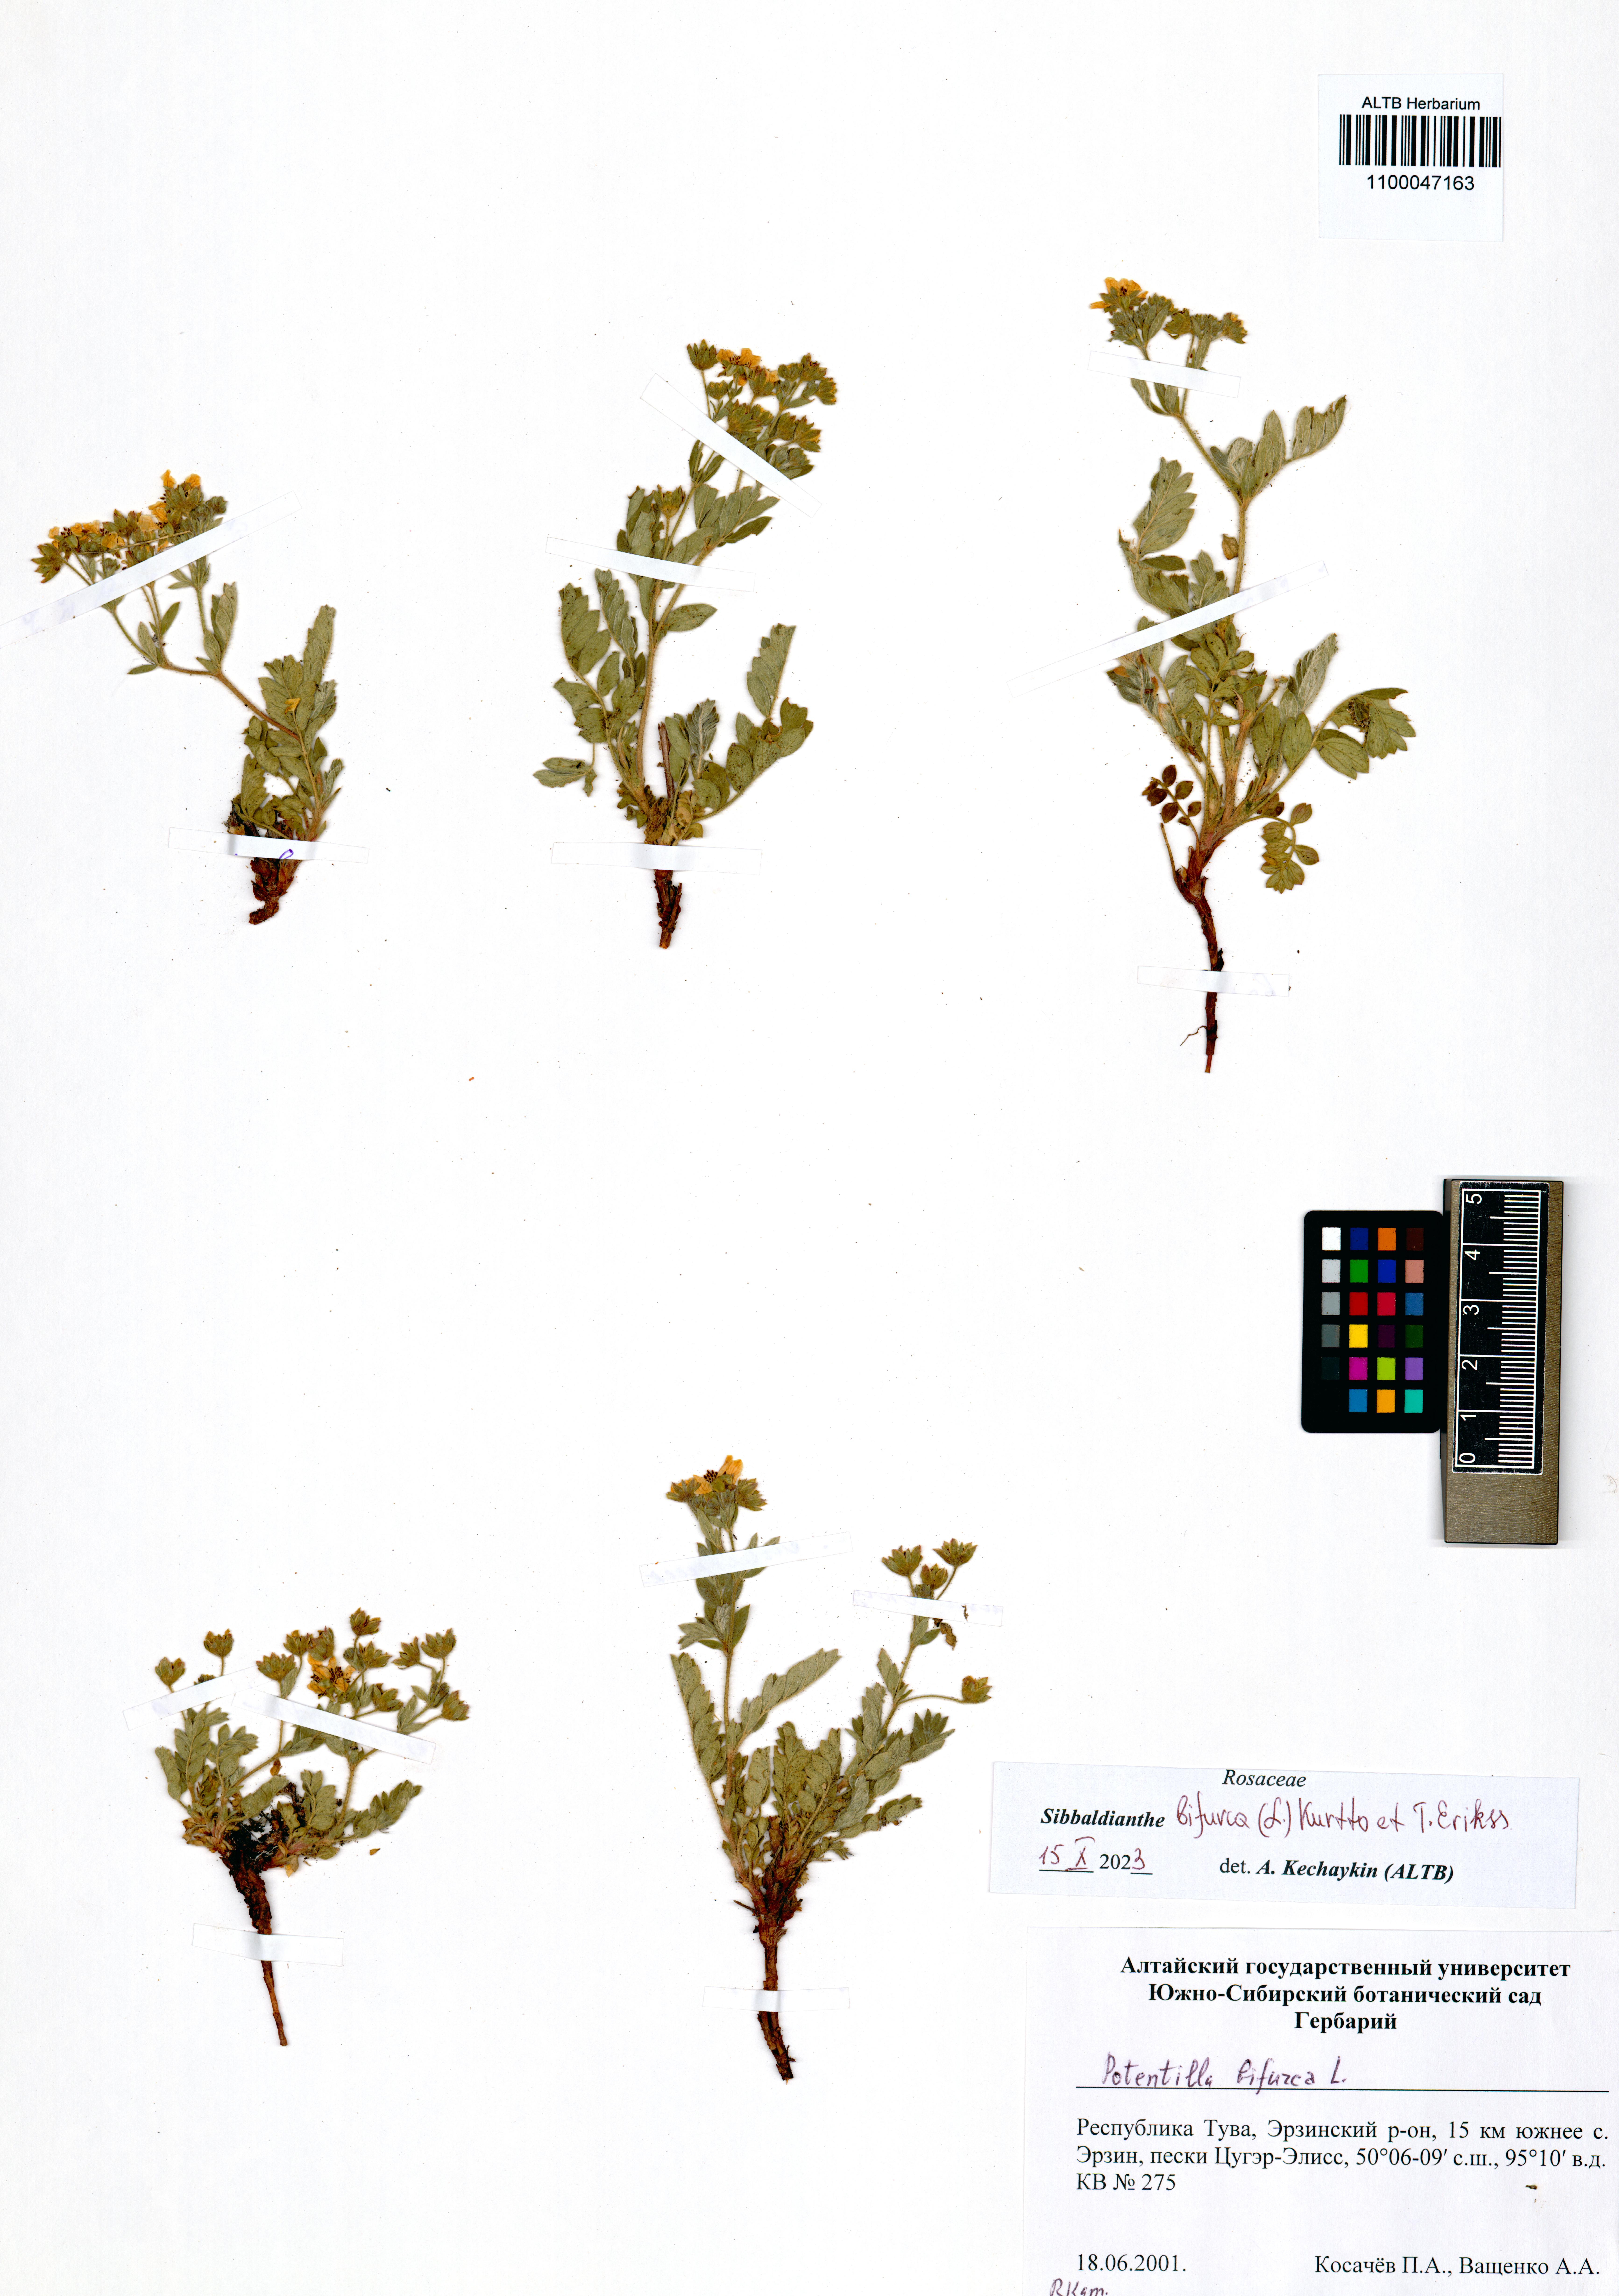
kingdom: Plantae
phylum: Tracheophyta
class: Magnoliopsida
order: Rosales
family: Rosaceae
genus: Sibbaldianthe
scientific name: Sibbaldianthe bifurca
